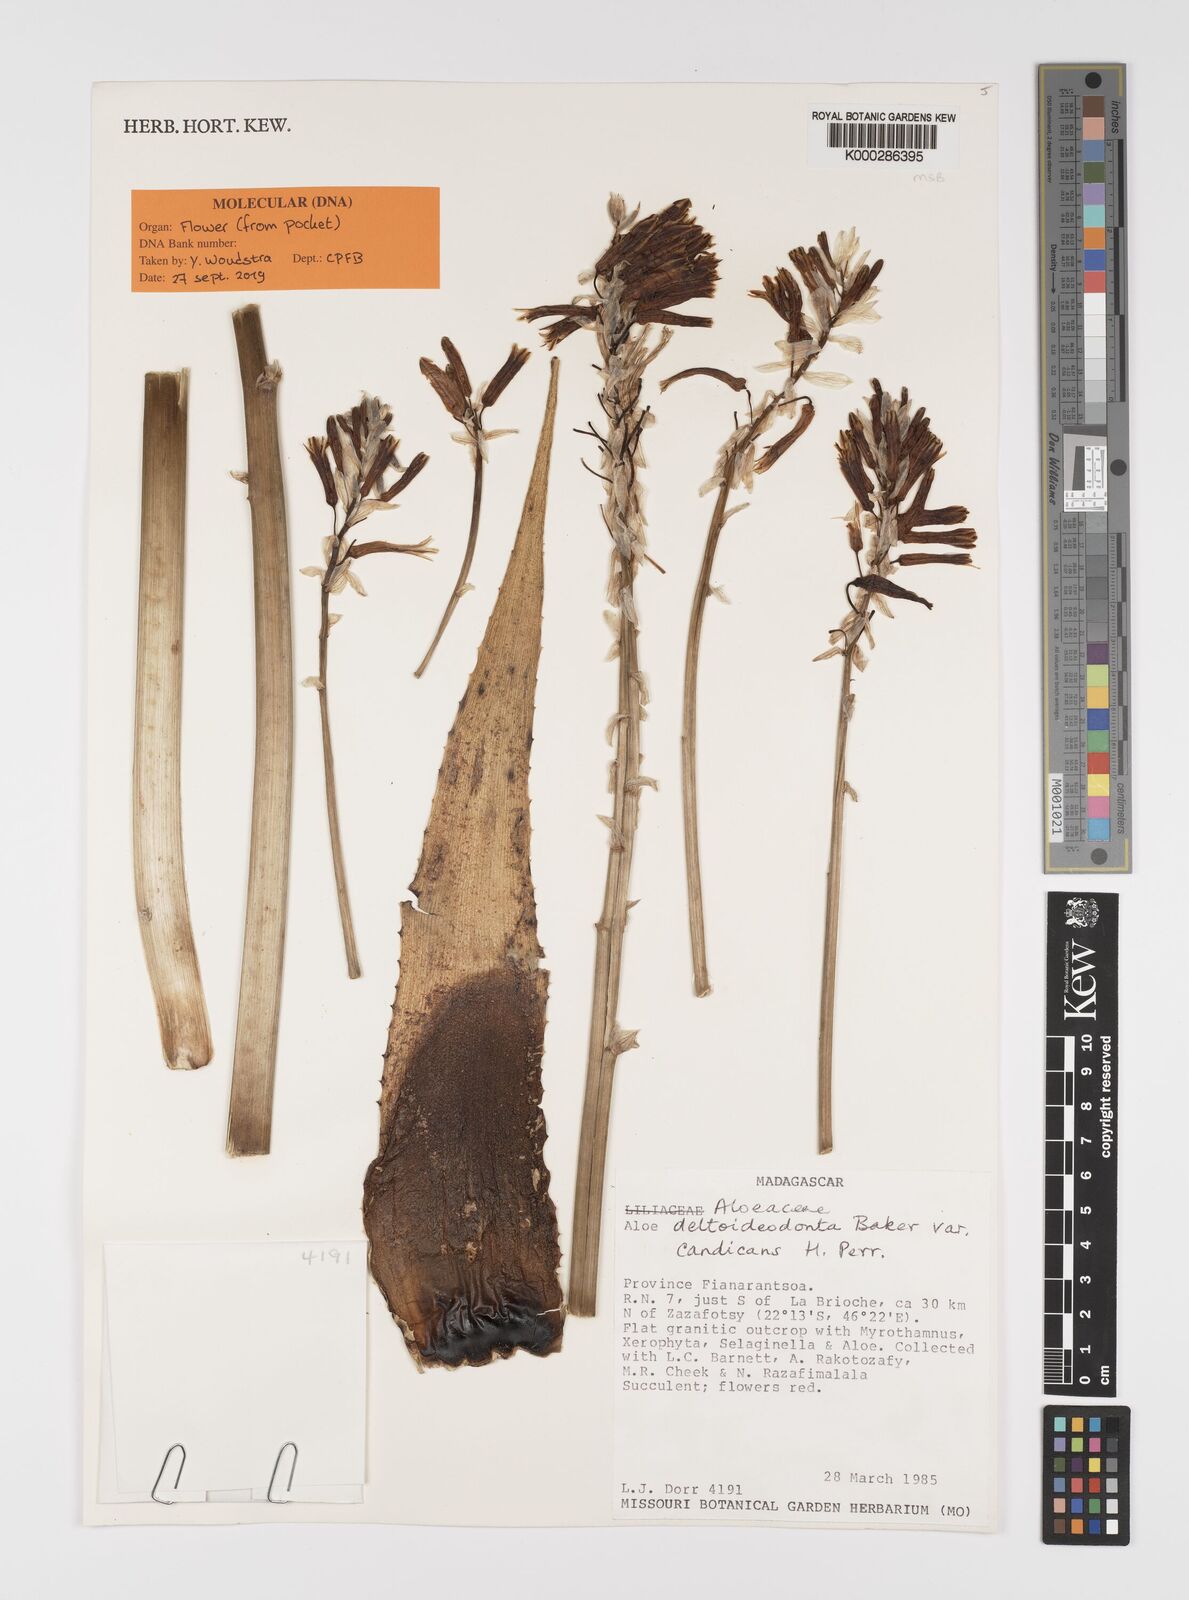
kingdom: Plantae
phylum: Tracheophyta
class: Liliopsida
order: Asparagales
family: Asphodelaceae
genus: Aloe
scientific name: Aloe deltoideodonta
